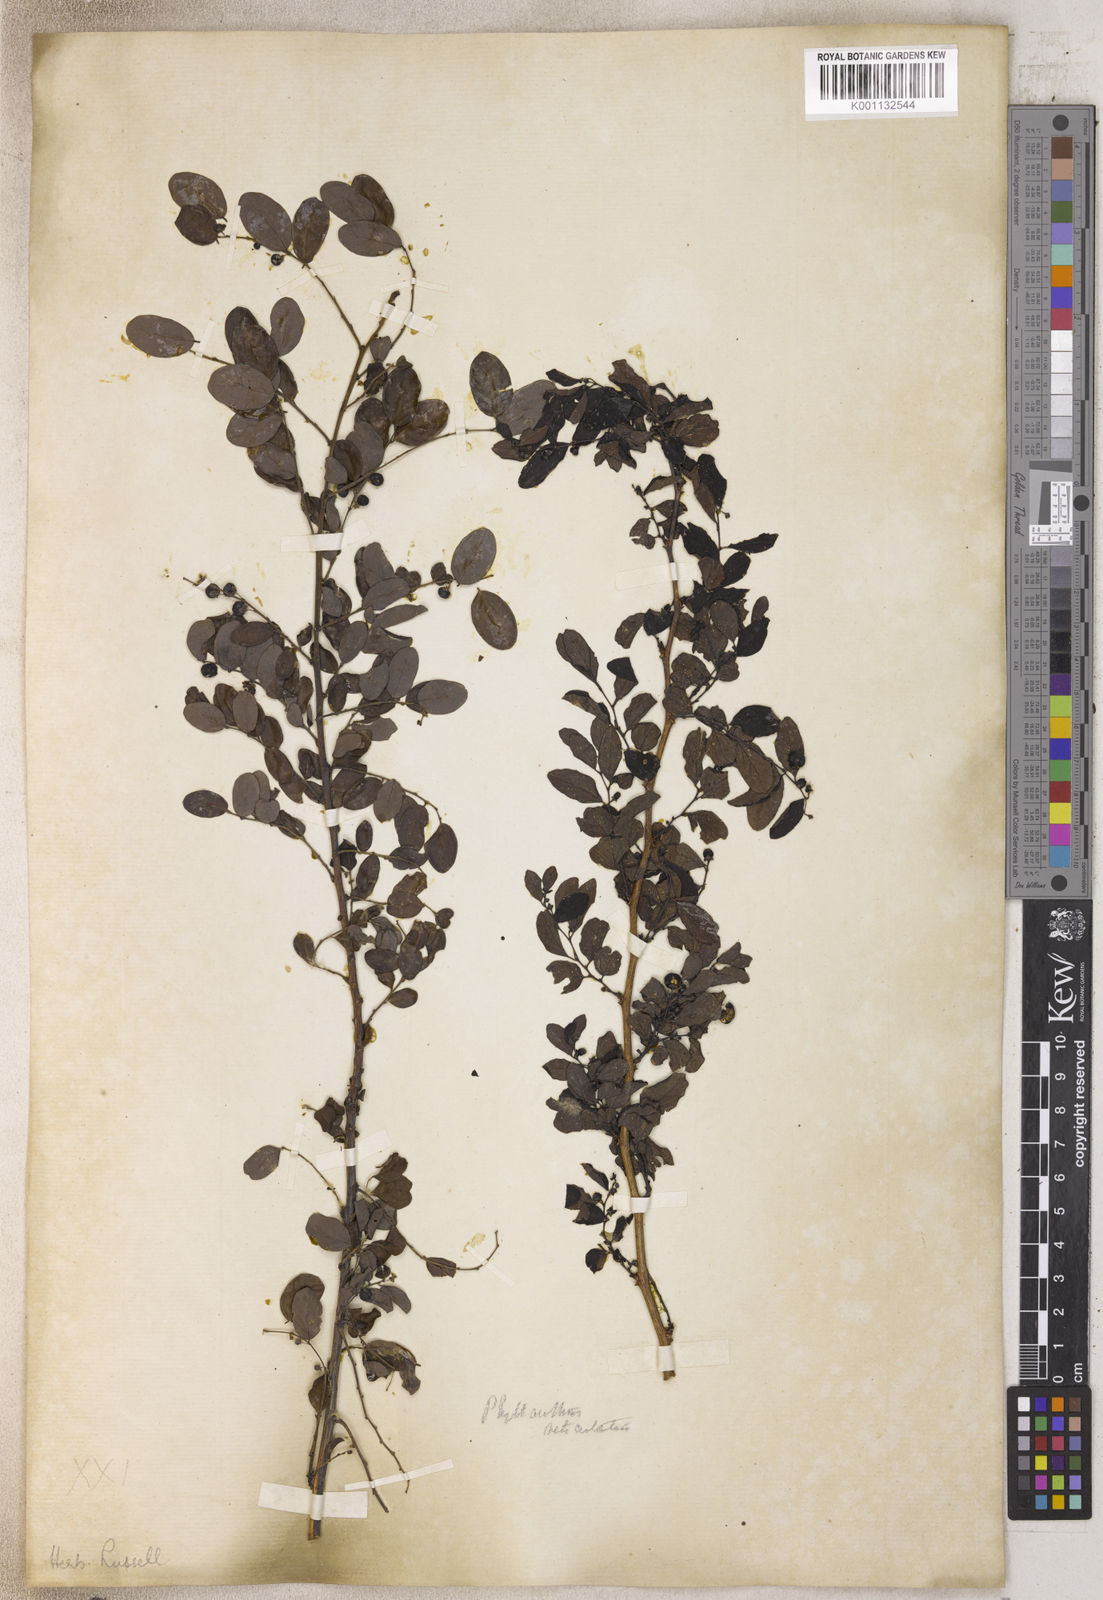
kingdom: Plantae
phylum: Tracheophyta
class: Magnoliopsida
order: Malpighiales
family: Phyllanthaceae
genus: Phyllanthus
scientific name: Phyllanthus
